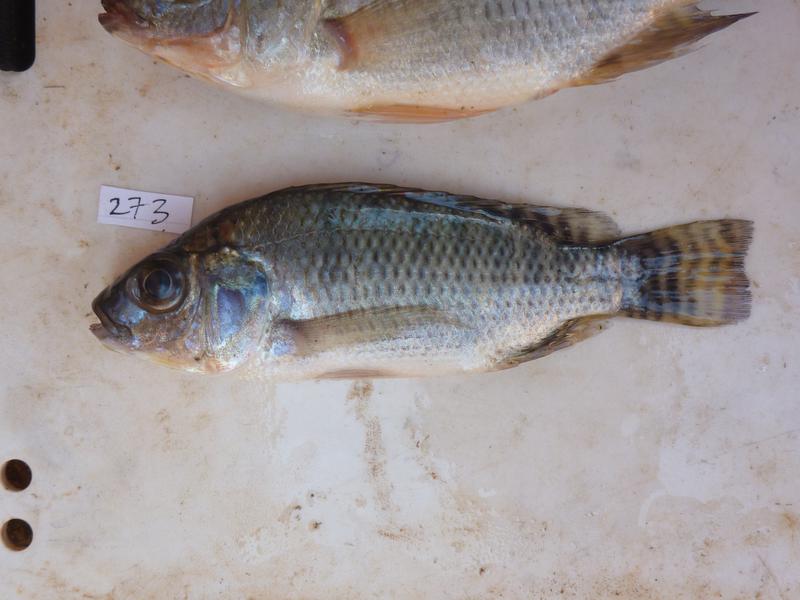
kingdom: Animalia
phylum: Chordata
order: Perciformes
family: Cichlidae
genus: Oreochromis
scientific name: Oreochromis niloticus
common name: Nile tilapia
